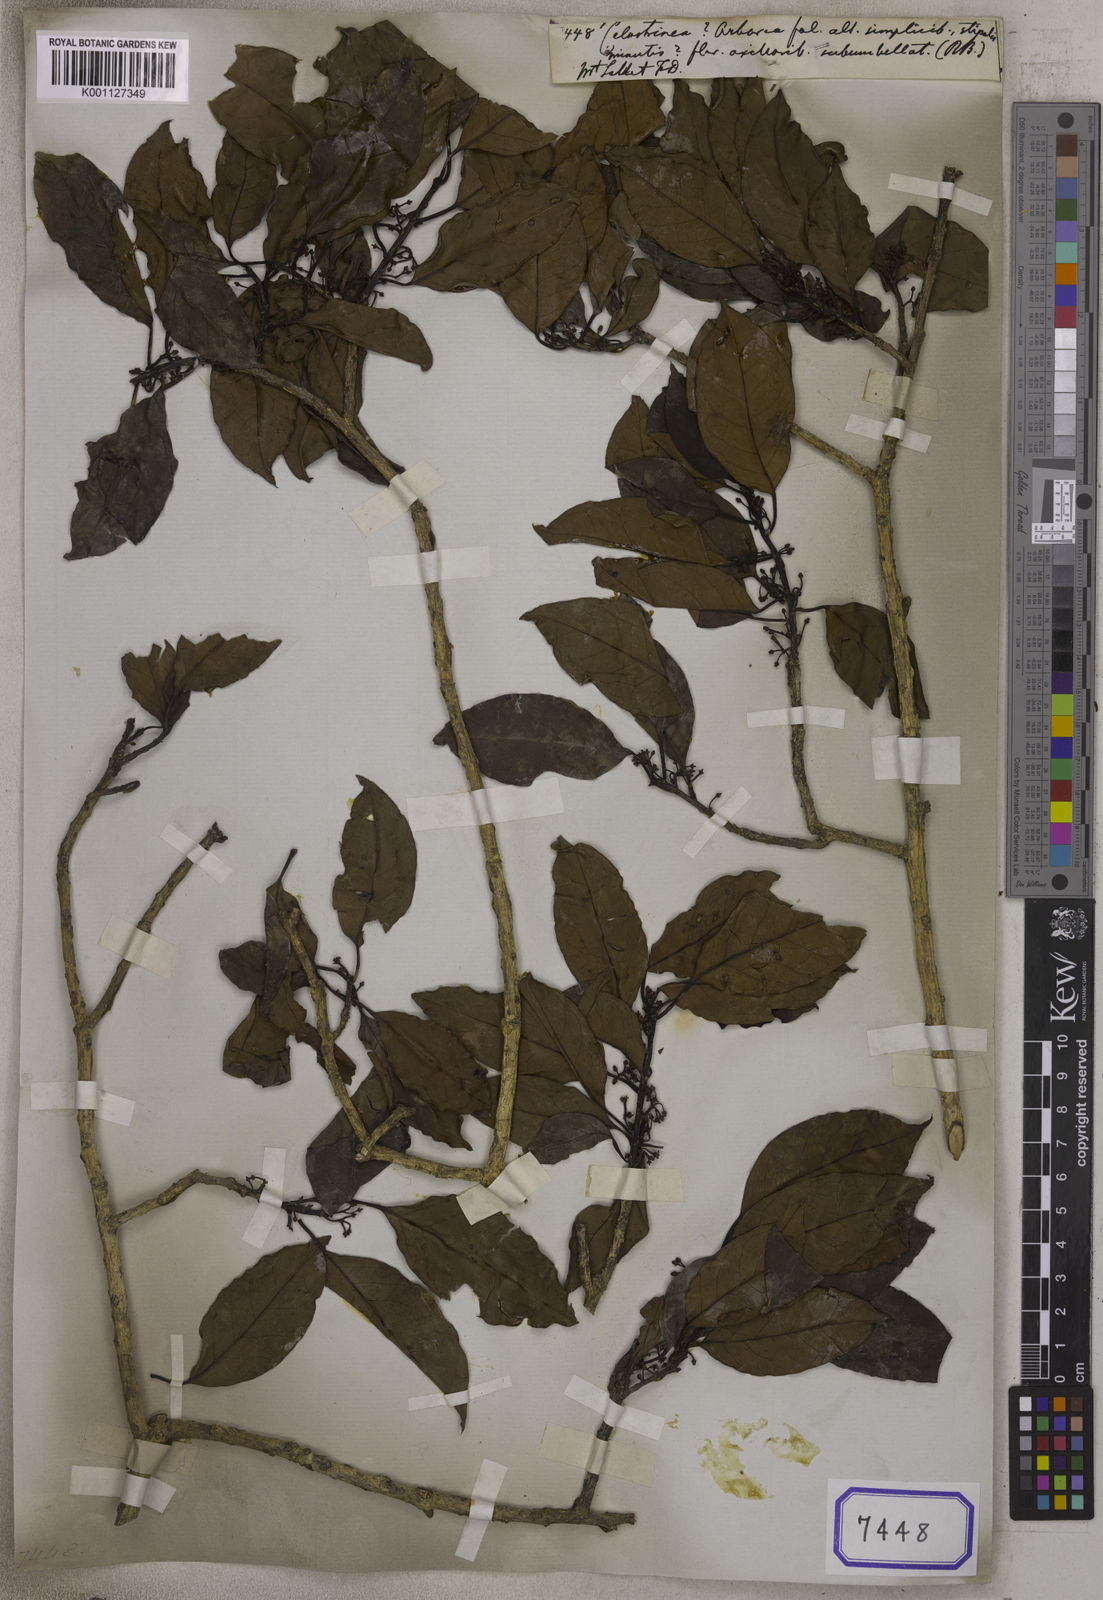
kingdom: Plantae
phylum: Tracheophyta
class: Magnoliopsida
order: Celastrales
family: Celastraceae
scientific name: Celastraceae
